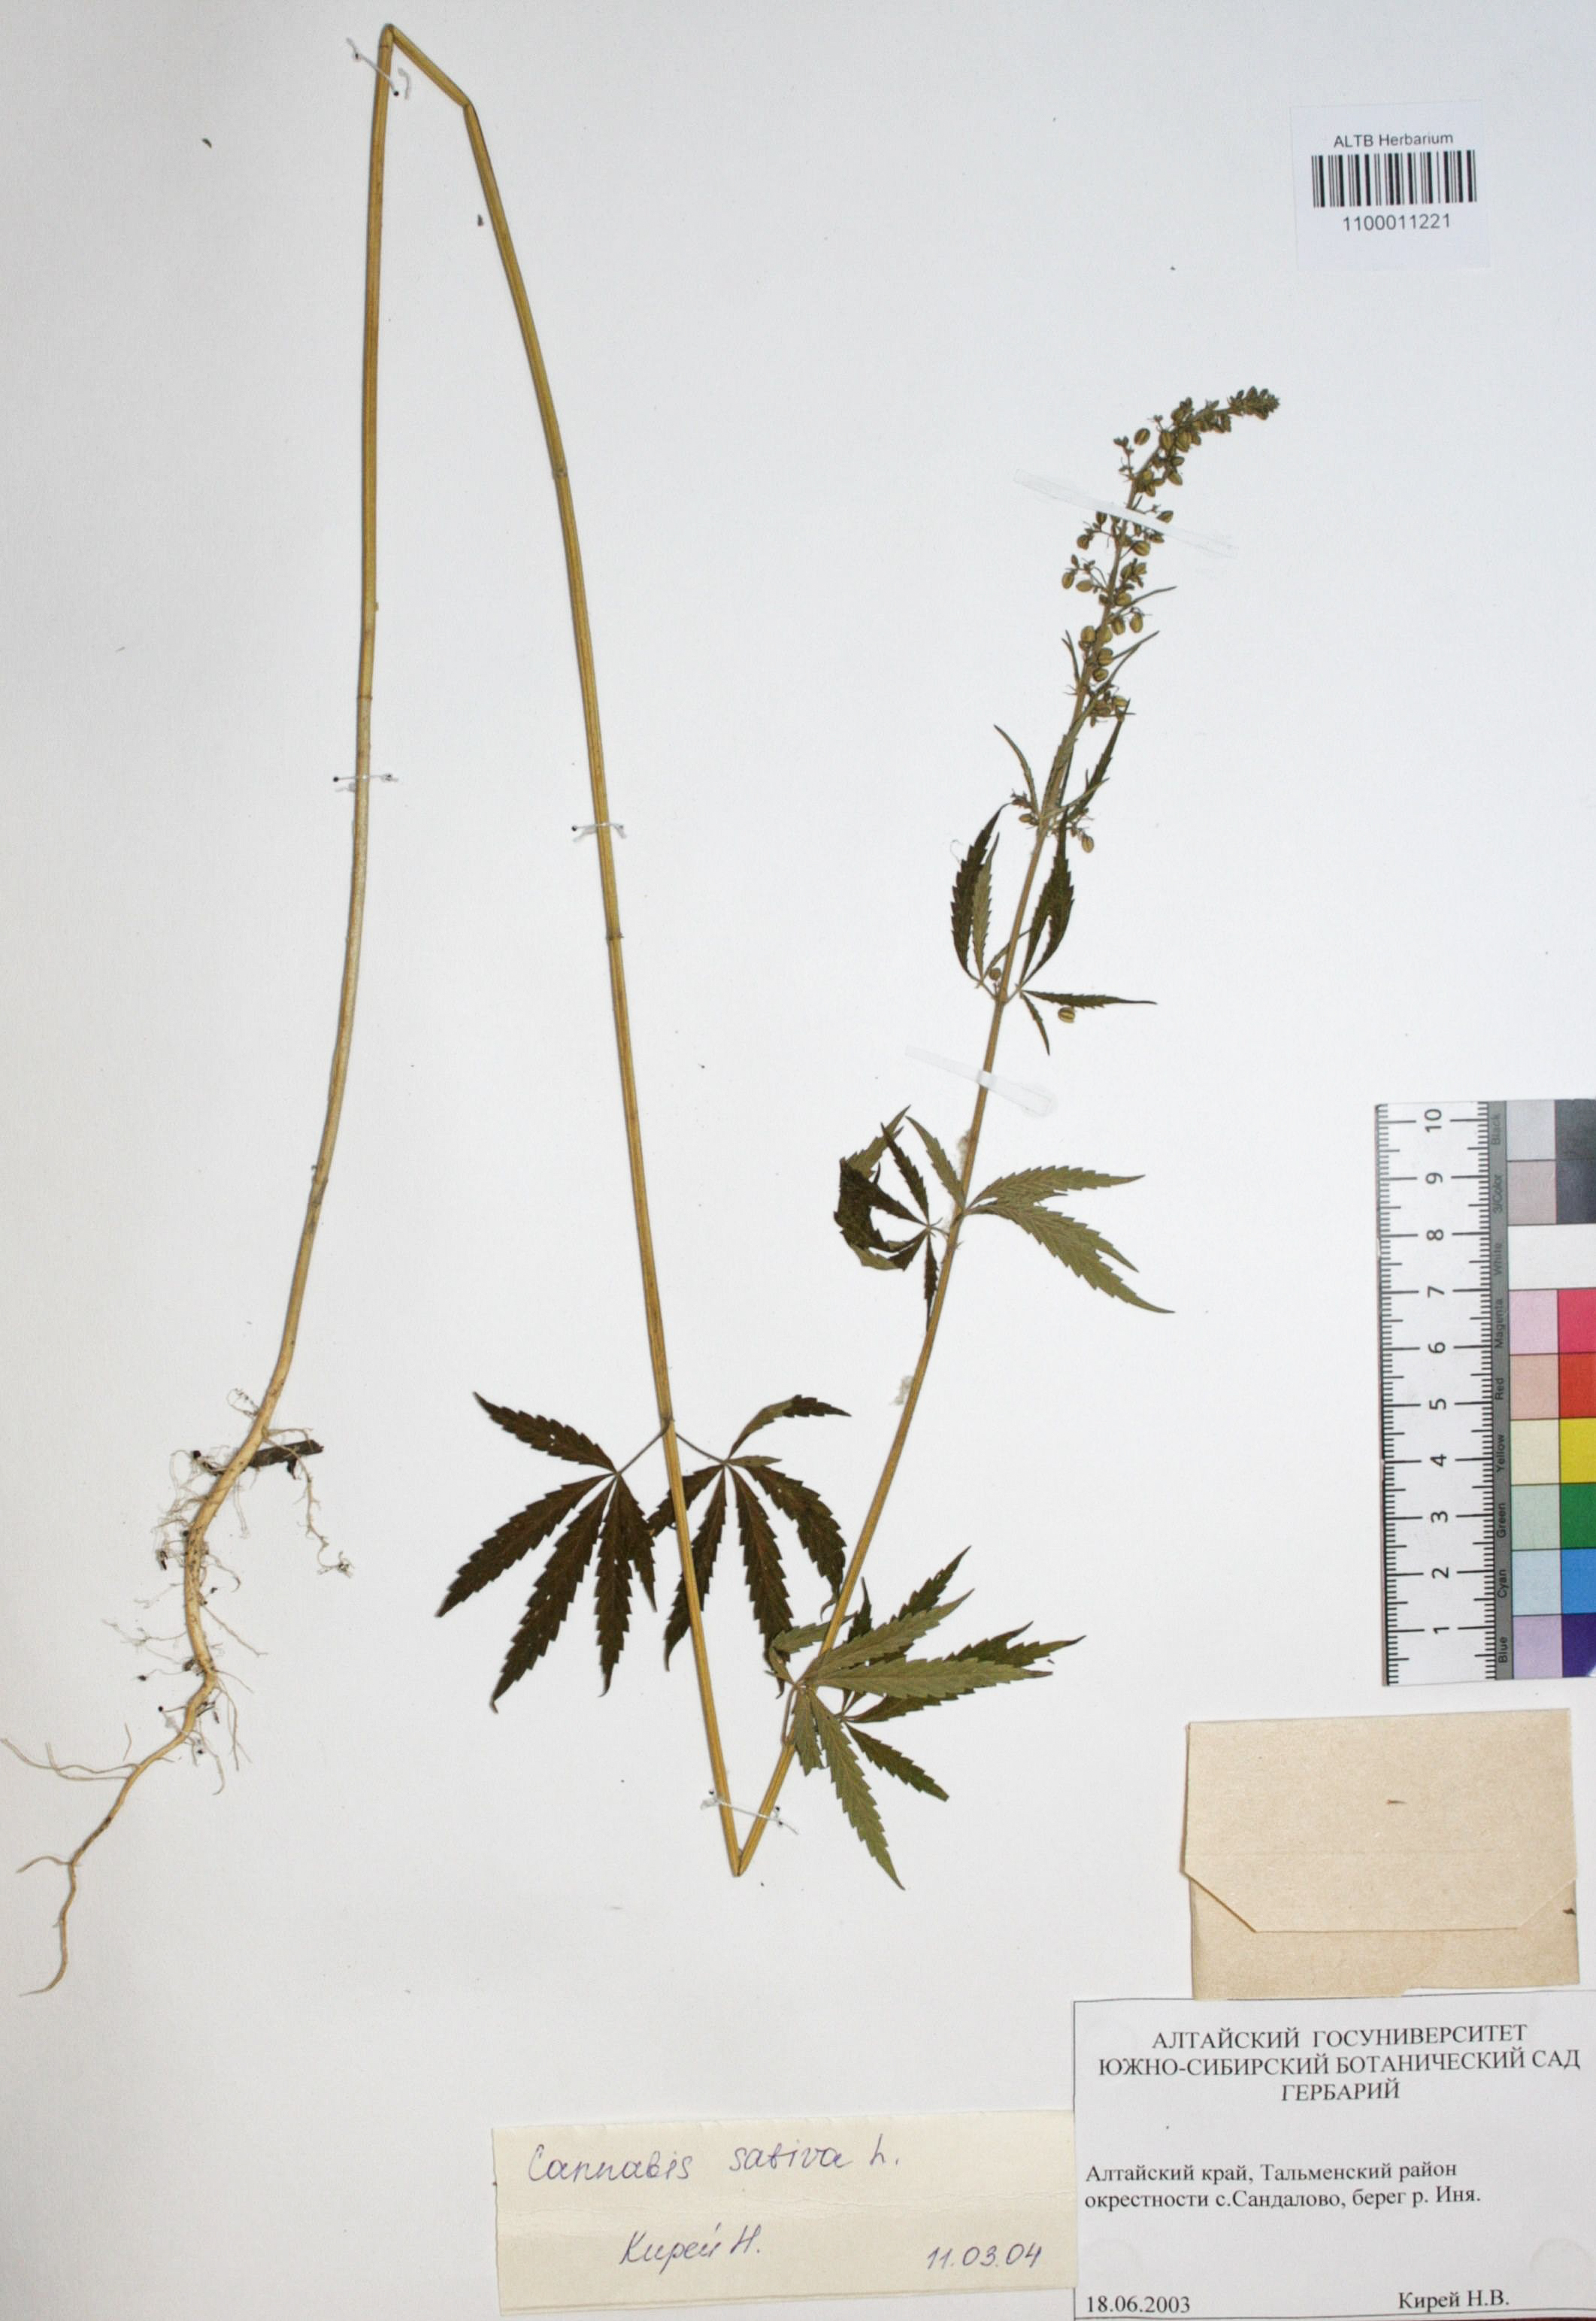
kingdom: Plantae
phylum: Tracheophyta
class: Magnoliopsida
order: Rosales
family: Cannabaceae
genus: Cannabis
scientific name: Cannabis sativa
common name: Hemp
